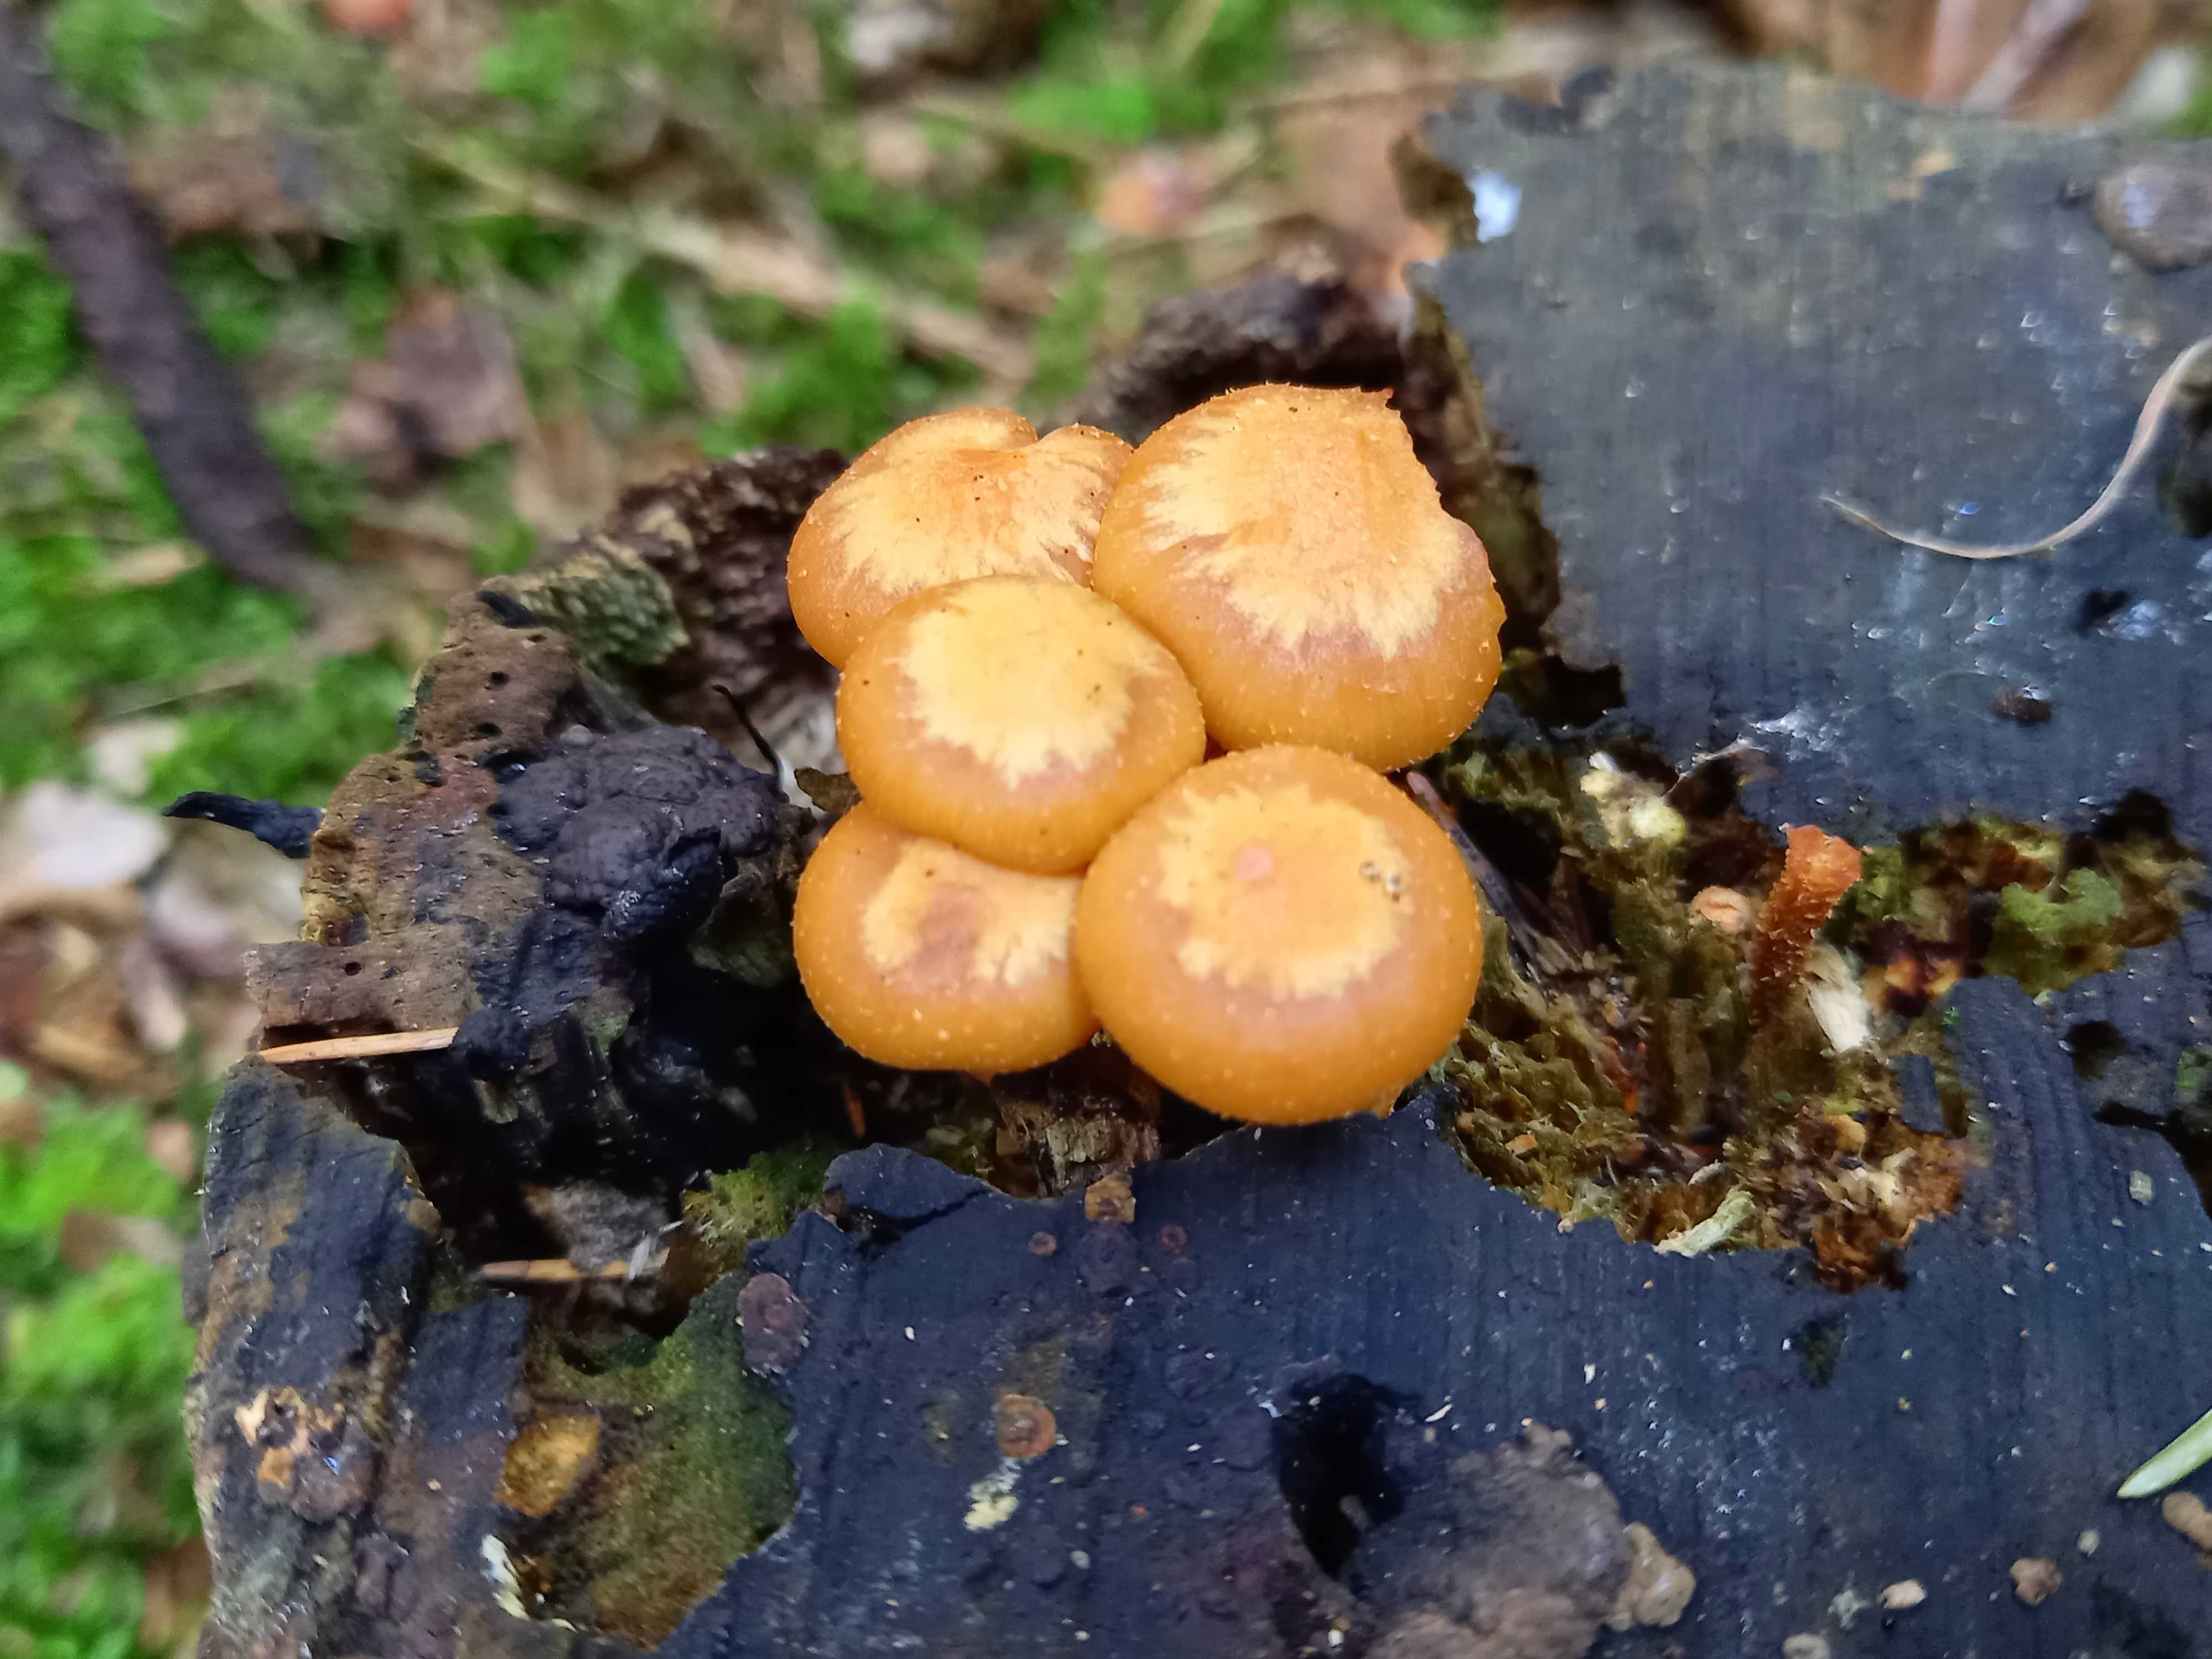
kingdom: Fungi
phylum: Basidiomycota
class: Agaricomycetes
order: Agaricales
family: Strophariaceae
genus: Kuehneromyces
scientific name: Kuehneromyces mutabilis
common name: foranderlig skælhat
